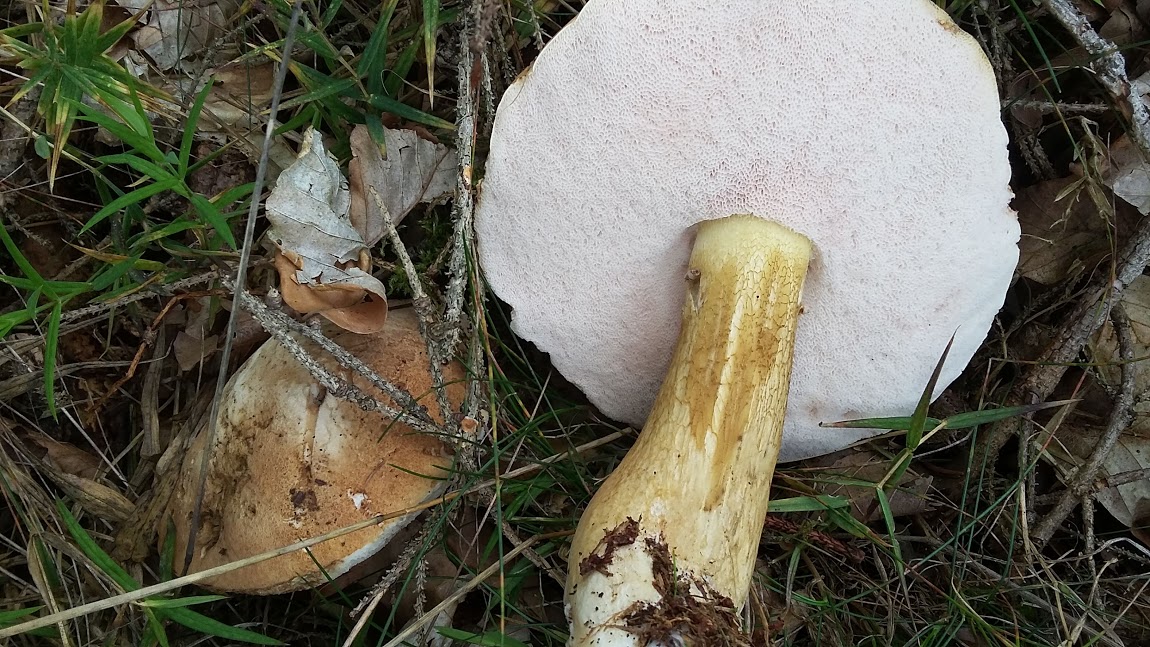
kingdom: Fungi
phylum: Basidiomycota
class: Agaricomycetes
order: Boletales
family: Boletaceae
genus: Tylopilus
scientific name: Tylopilus felleus
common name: galderørhat
